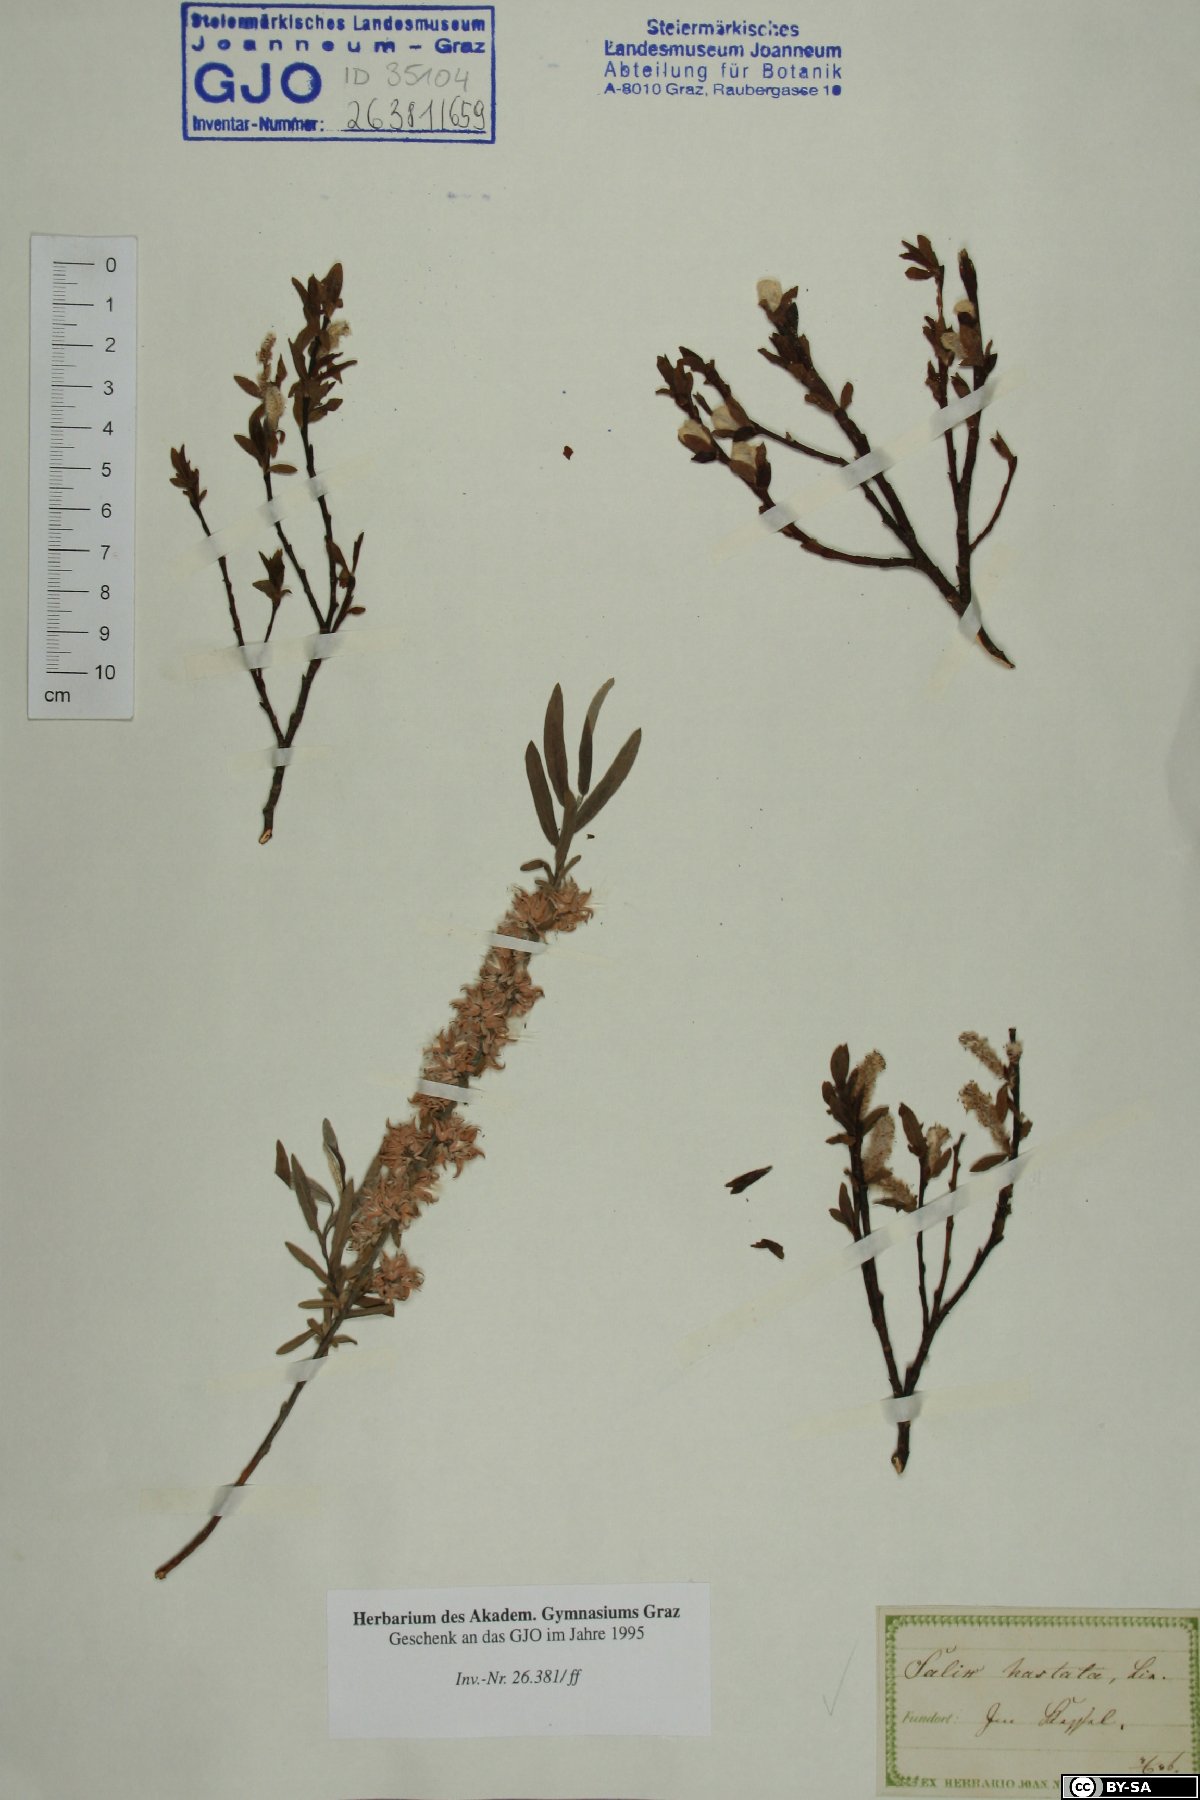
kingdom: Plantae
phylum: Tracheophyta
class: Magnoliopsida
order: Malpighiales
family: Salicaceae
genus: Salix
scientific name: Salix hastata
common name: Halberd willow
